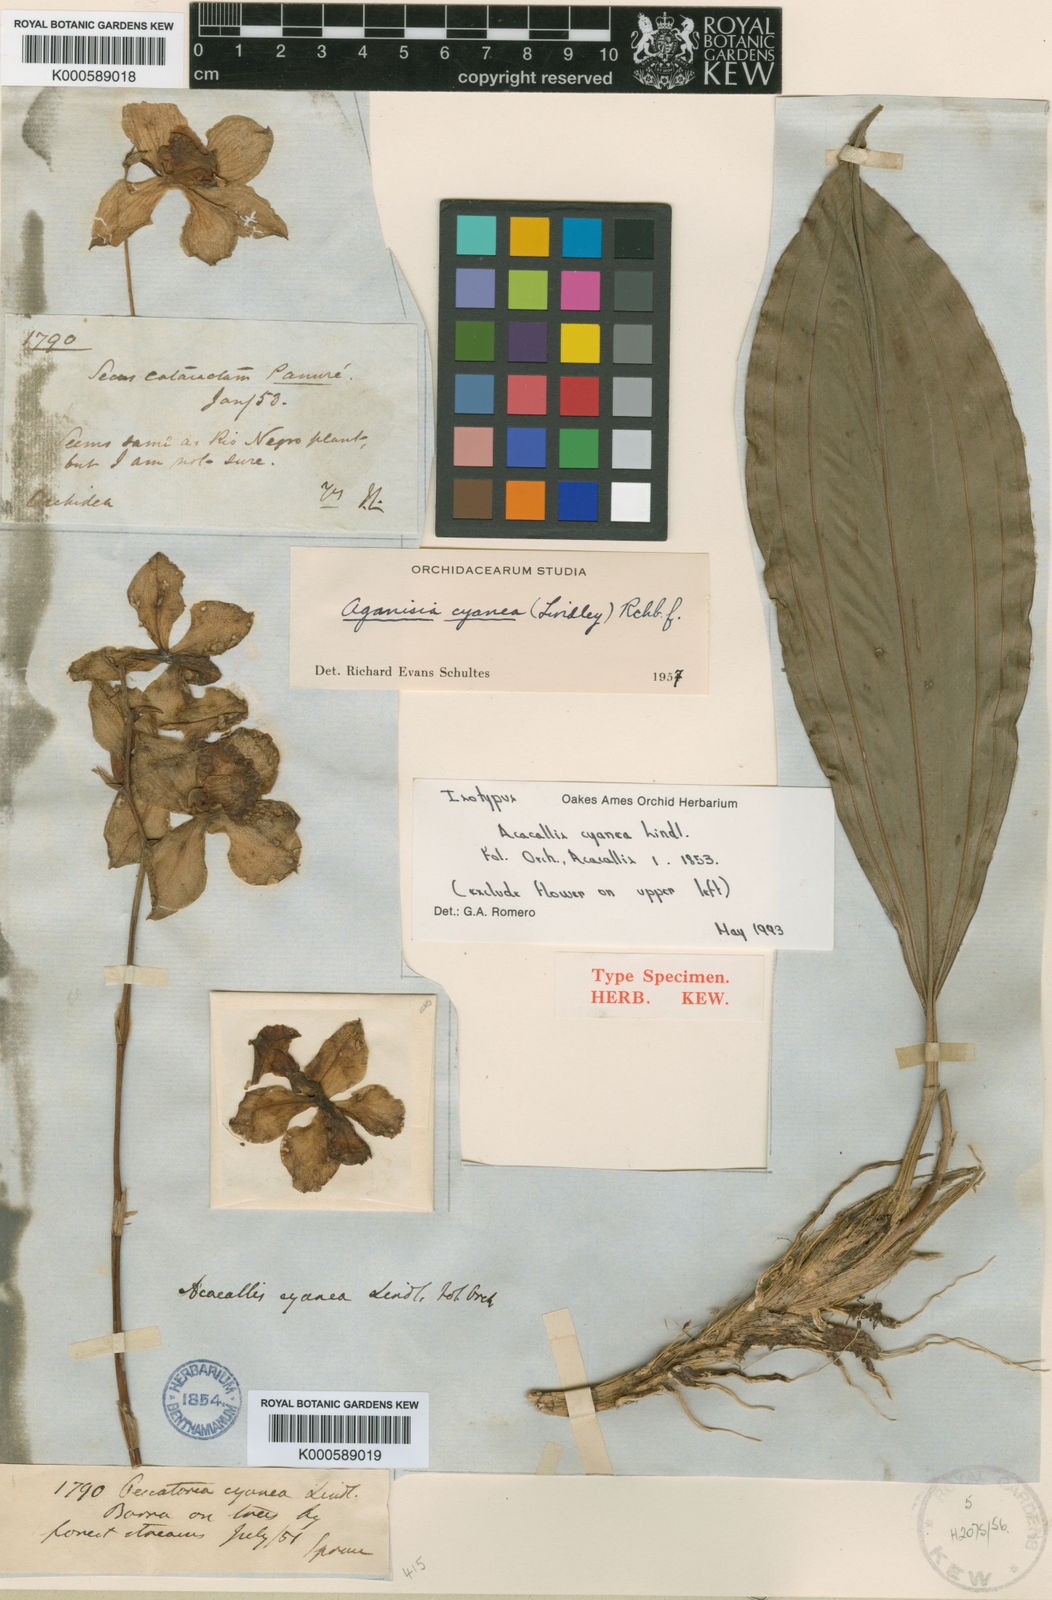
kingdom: Plantae
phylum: Tracheophyta
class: Liliopsida
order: Asparagales
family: Orchidaceae
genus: Aganisia
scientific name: Aganisia cyanea
